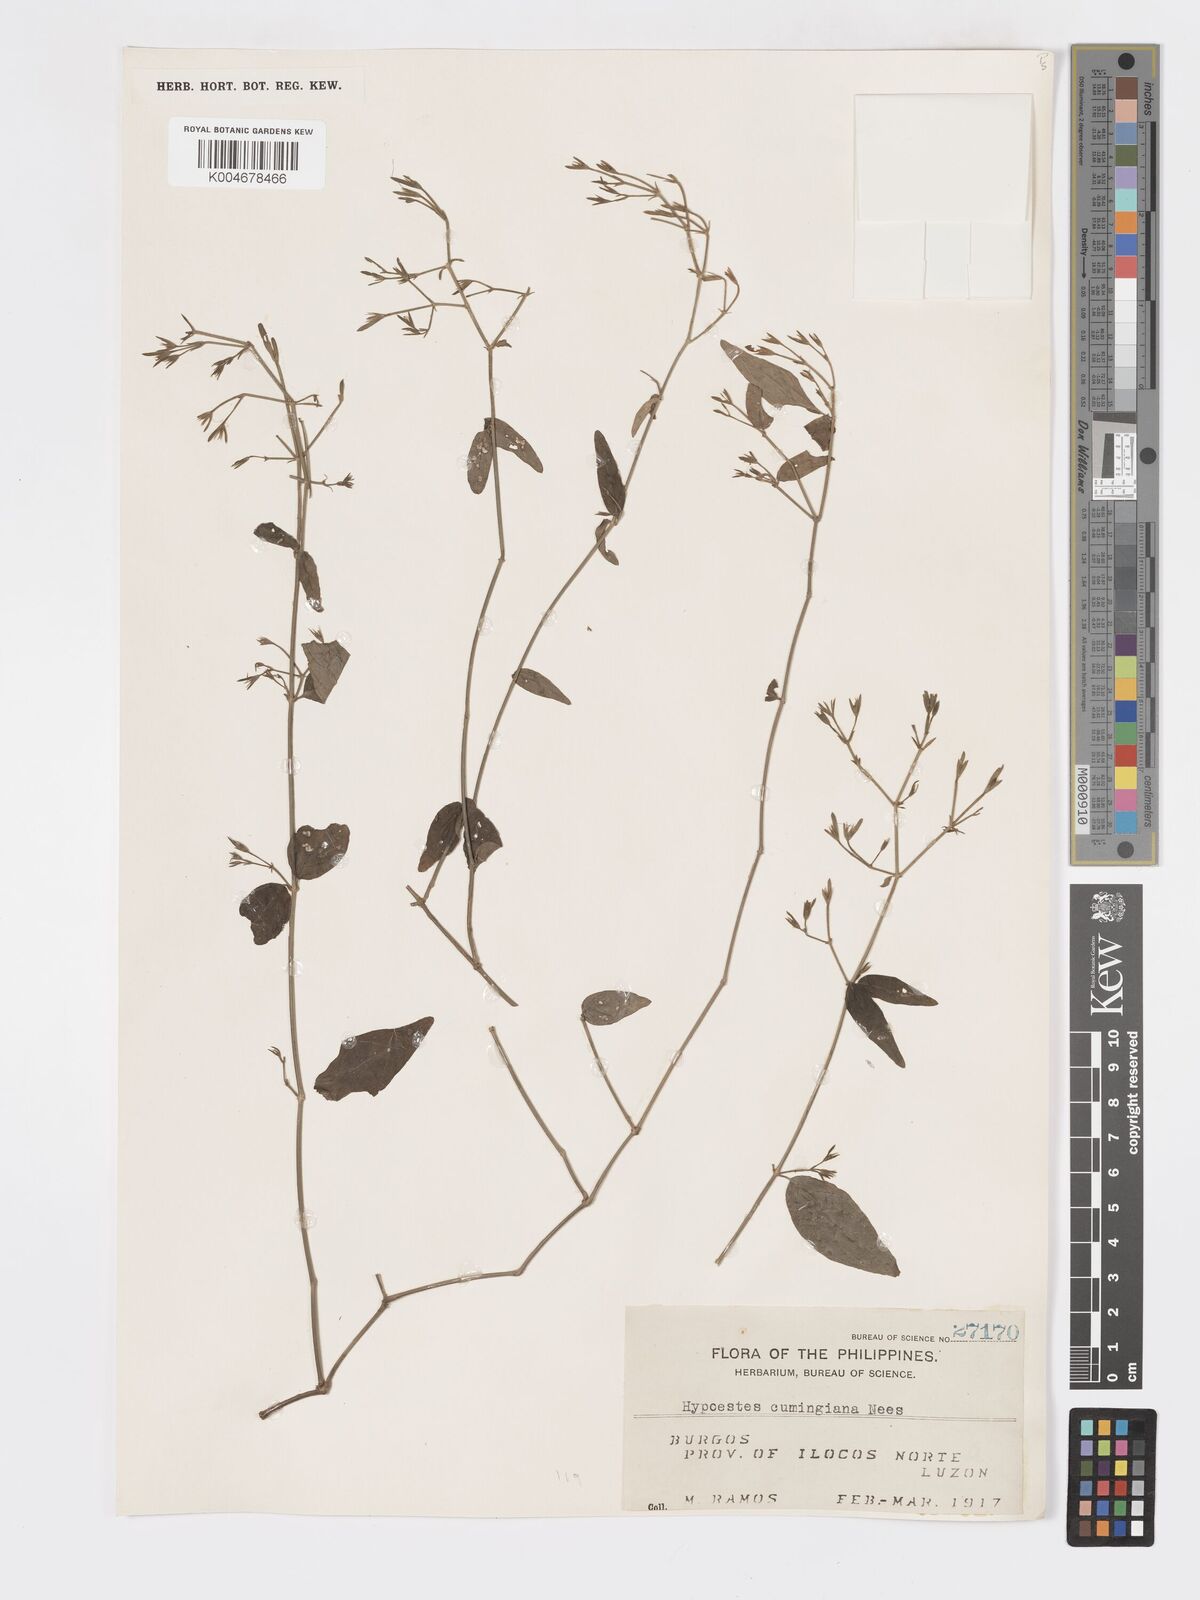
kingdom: Plantae
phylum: Tracheophyta
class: Magnoliopsida
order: Lamiales
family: Acanthaceae
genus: Hypoestes
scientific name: Hypoestes cumingiana
